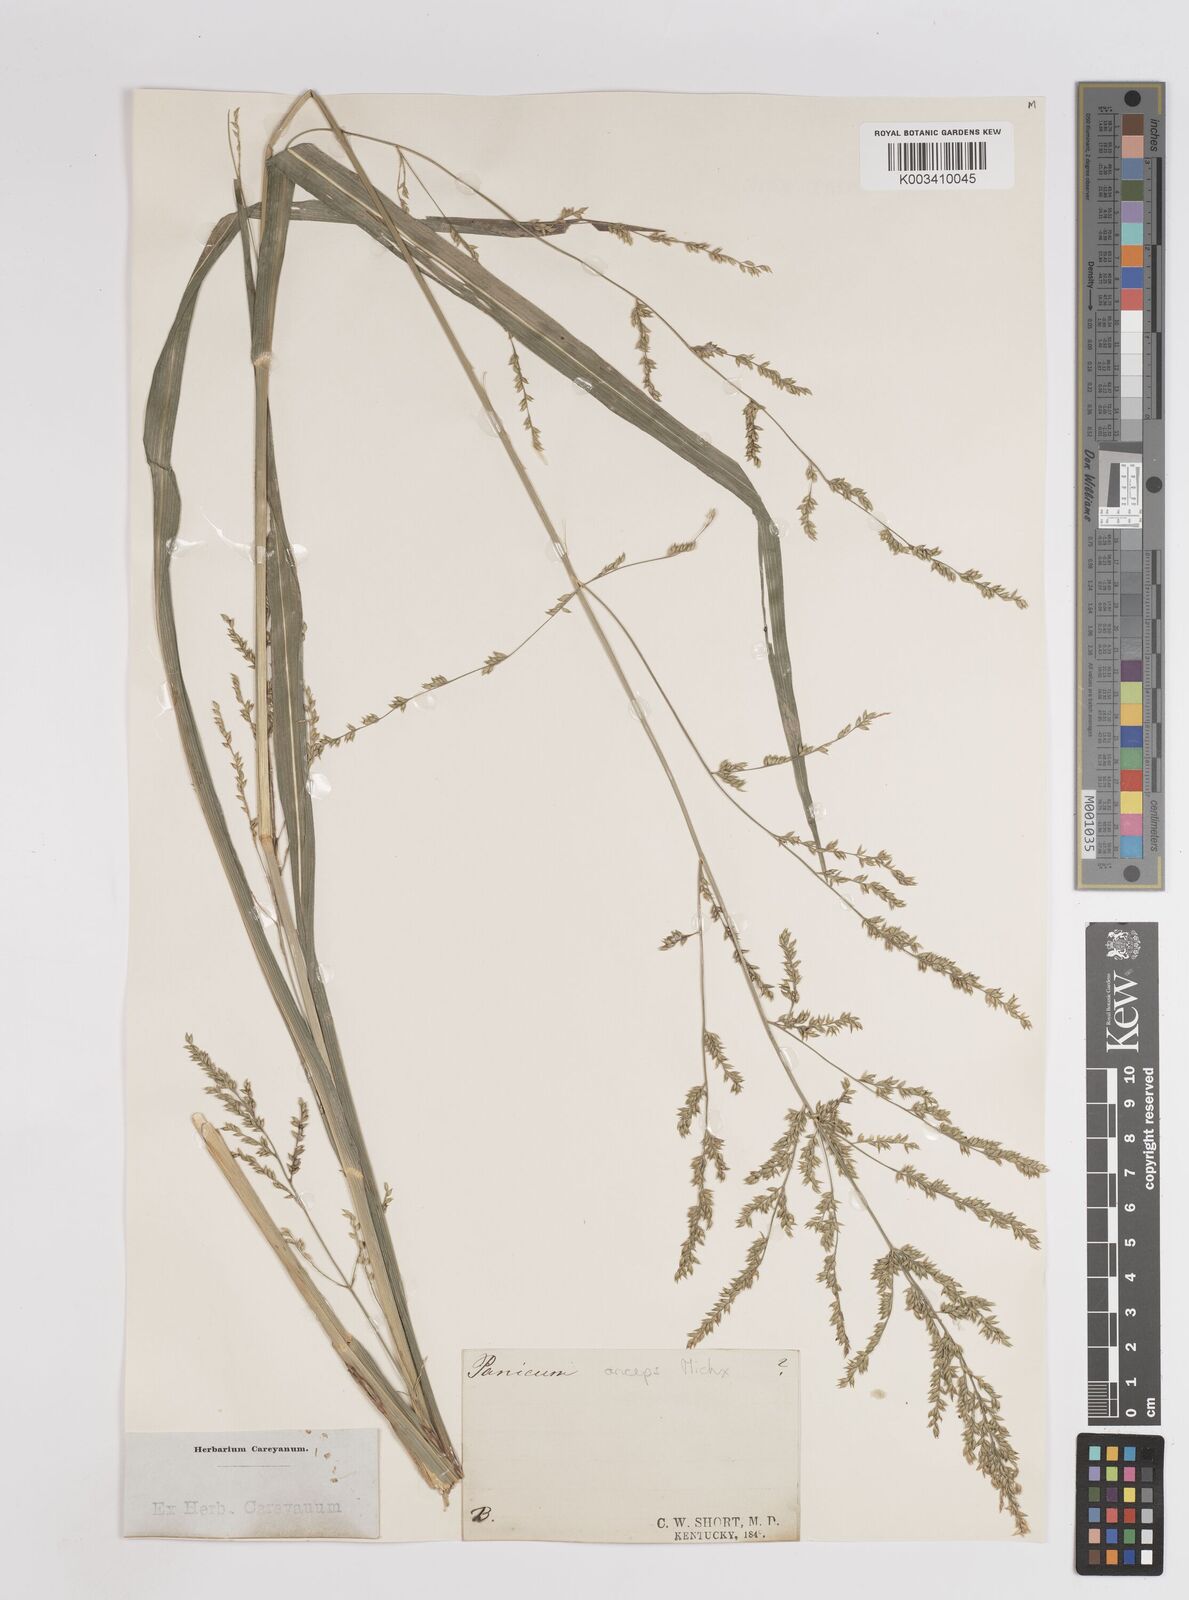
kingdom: Plantae
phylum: Tracheophyta
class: Liliopsida
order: Poales
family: Poaceae
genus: Coleataenia
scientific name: Coleataenia anceps
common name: Beaked panic grass
